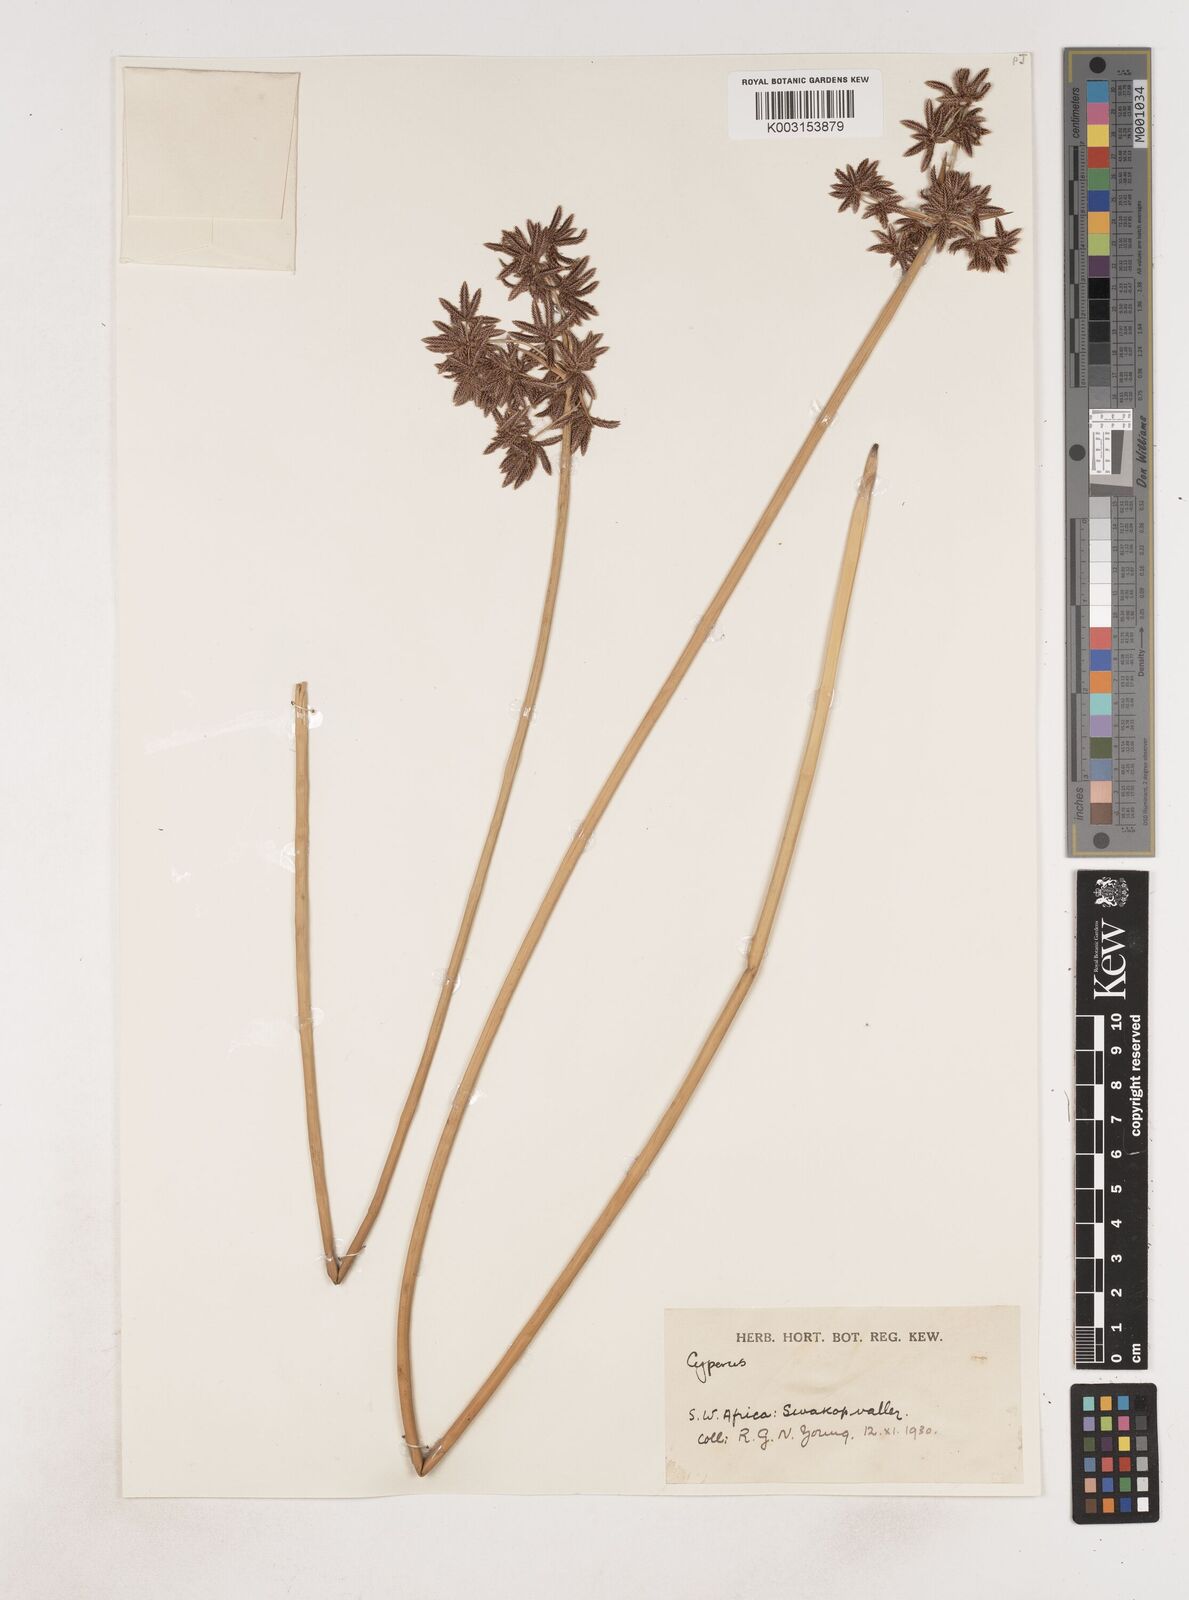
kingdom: Plantae
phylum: Tracheophyta
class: Liliopsida
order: Poales
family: Cyperaceae
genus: Cyperus
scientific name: Cyperus
